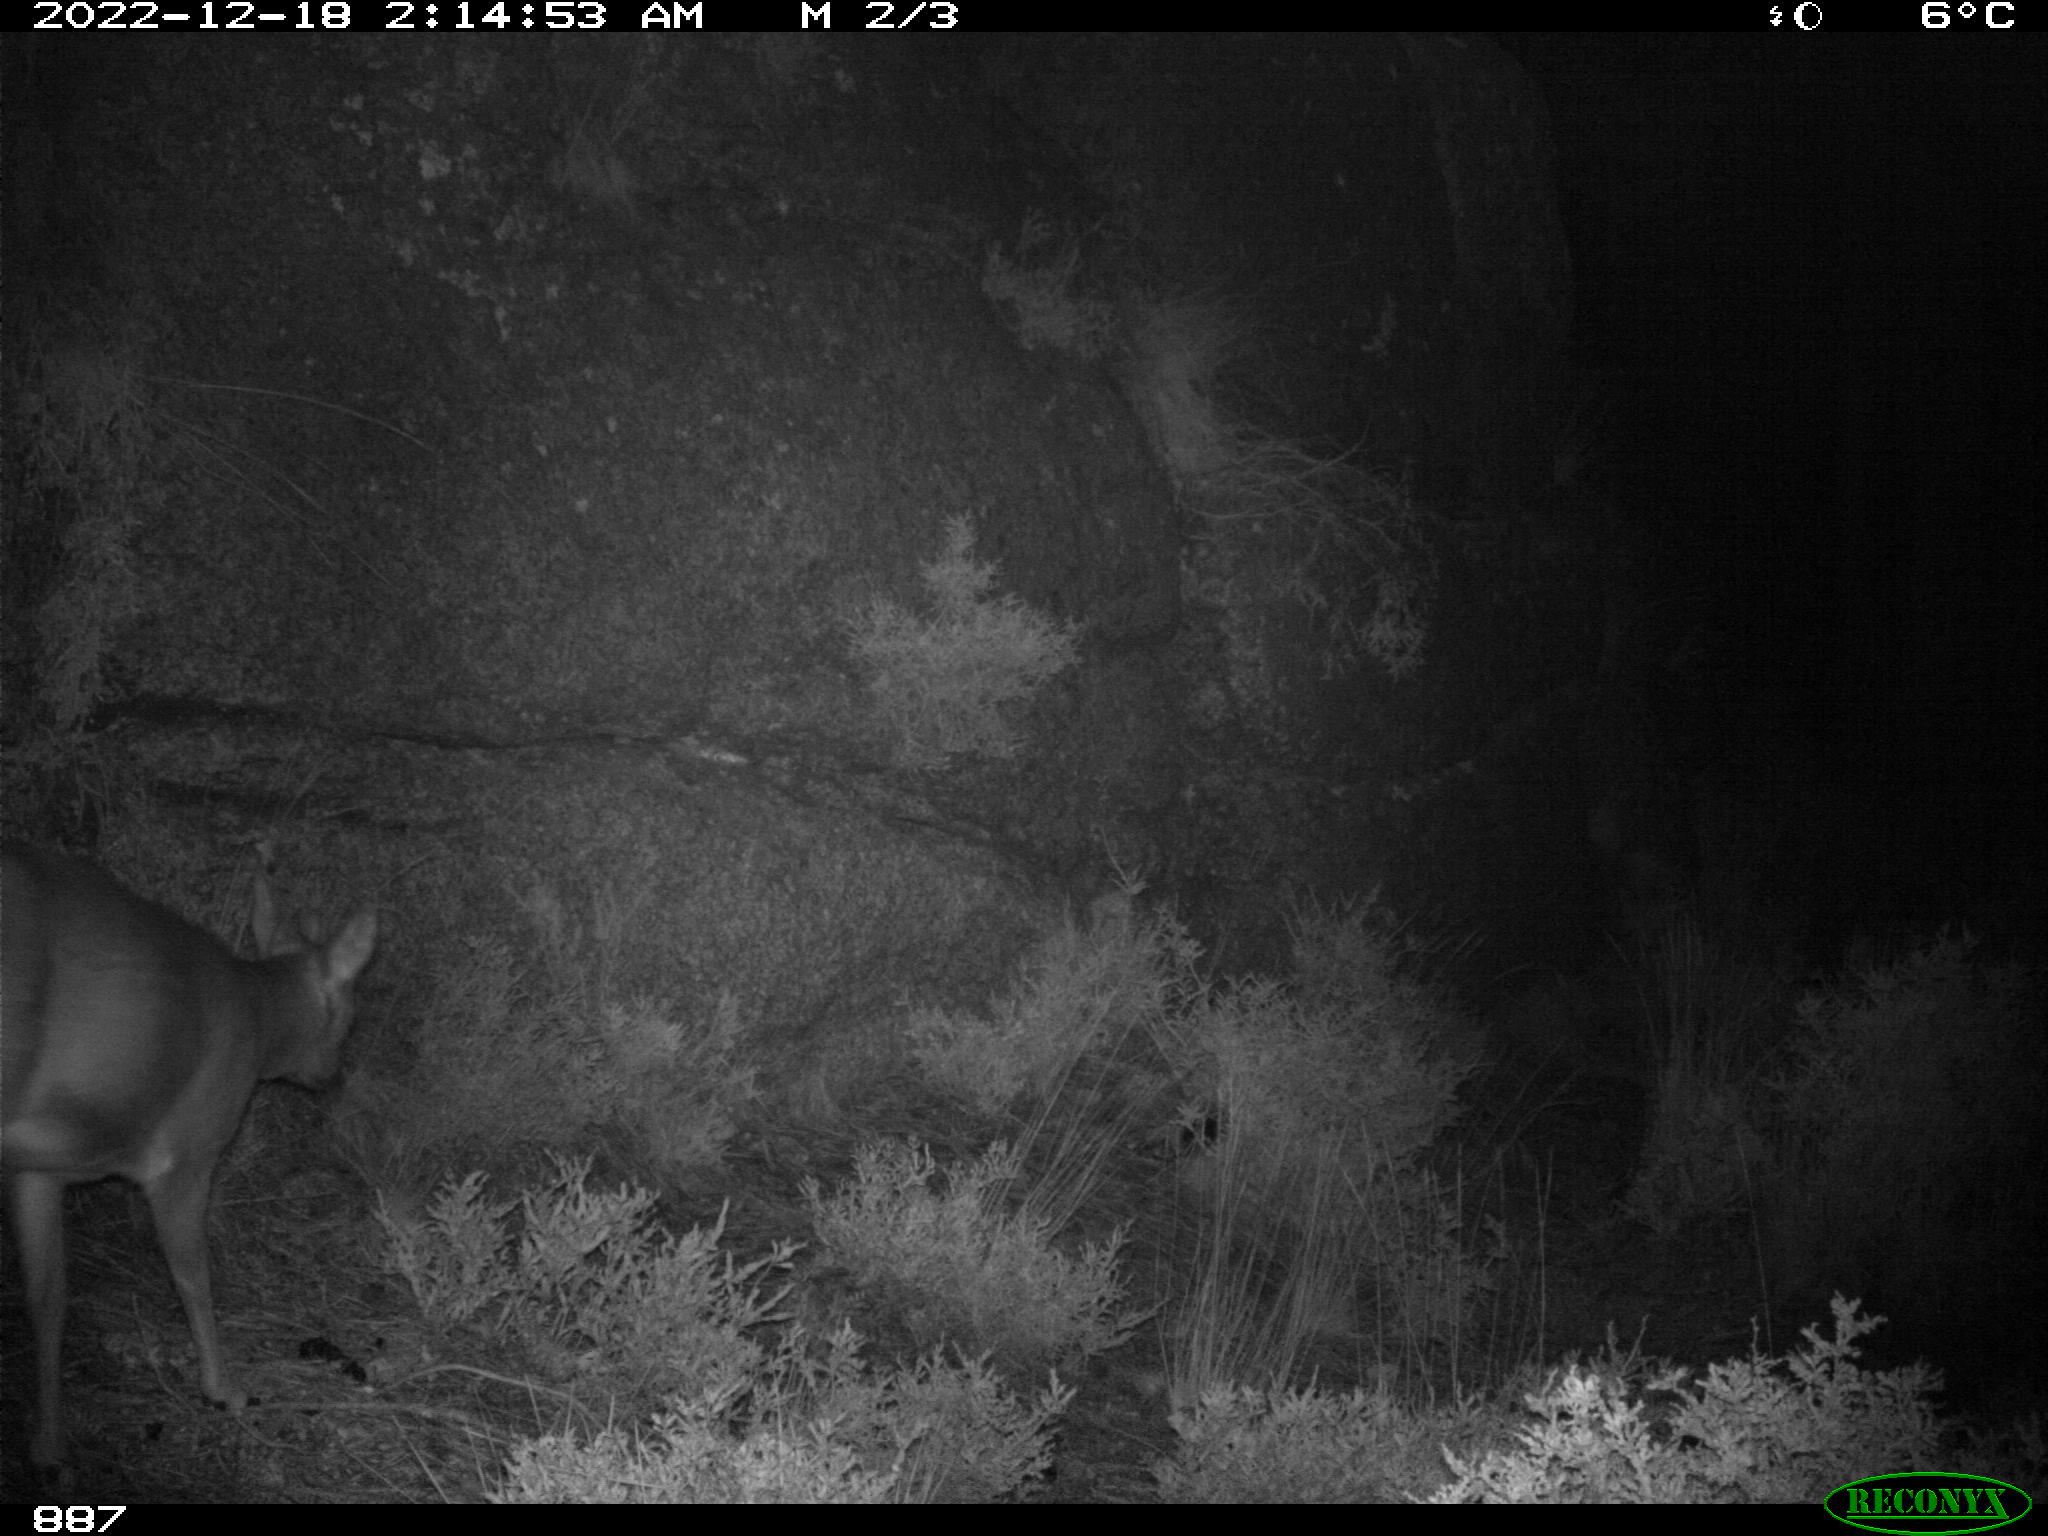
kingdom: Animalia
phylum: Chordata
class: Mammalia
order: Artiodactyla
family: Cervidae
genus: Capreolus
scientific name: Capreolus capreolus
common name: Western roe deer
